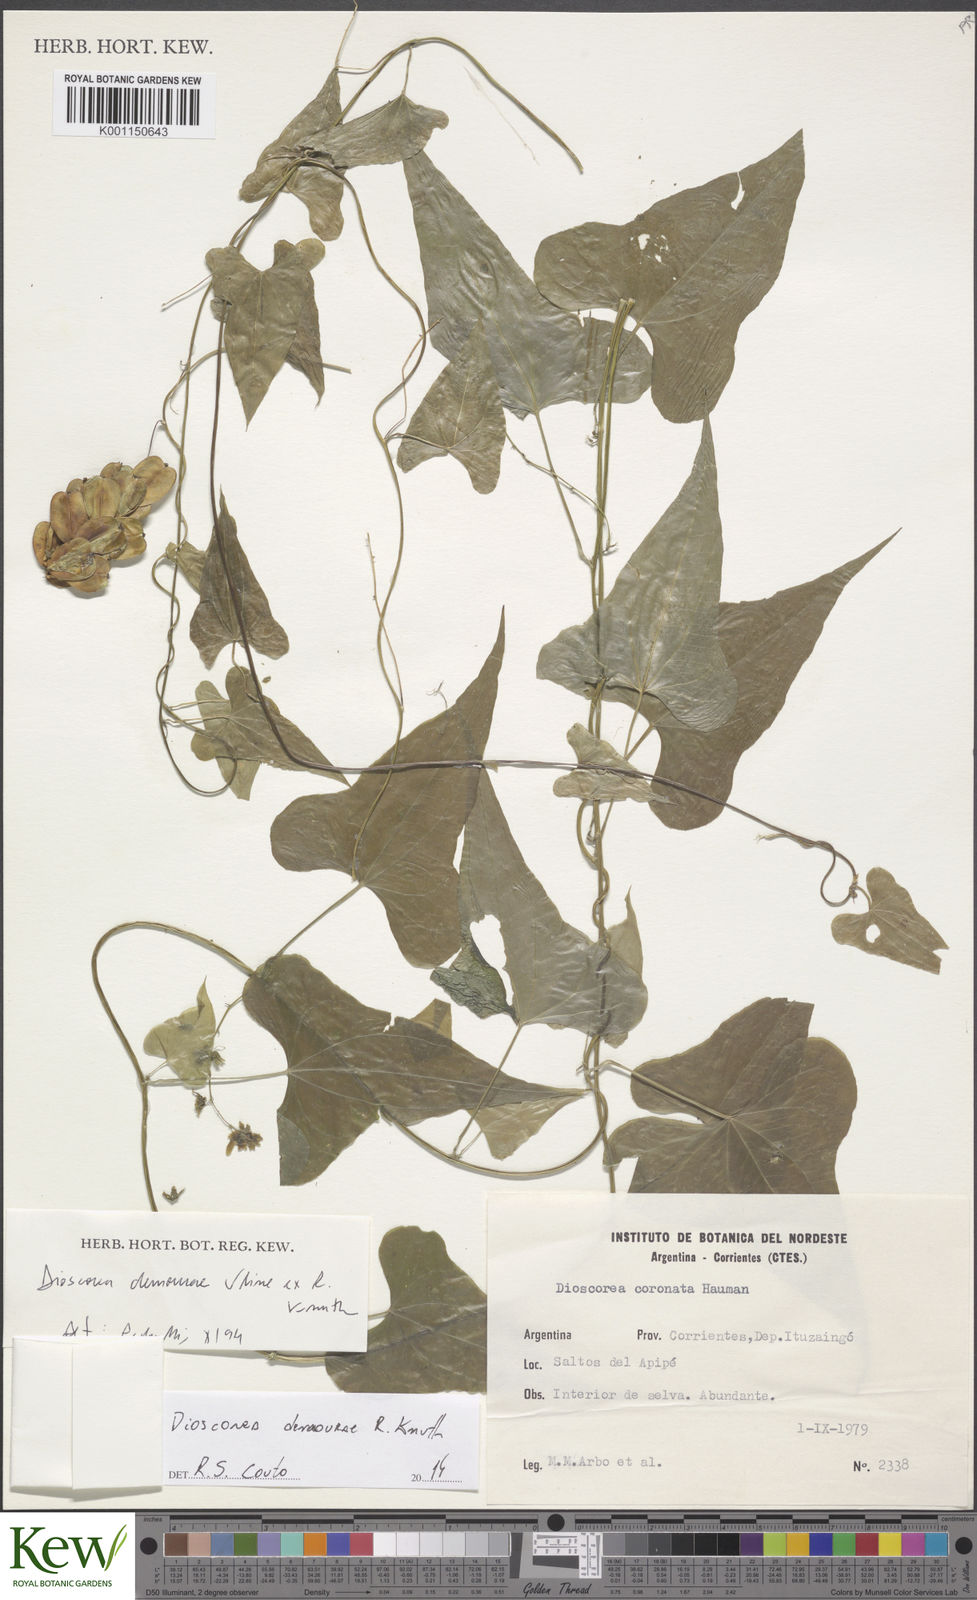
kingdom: Plantae
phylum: Tracheophyta
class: Liliopsida
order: Dioscoreales
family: Dioscoreaceae
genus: Dioscorea
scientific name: Dioscorea demourae
